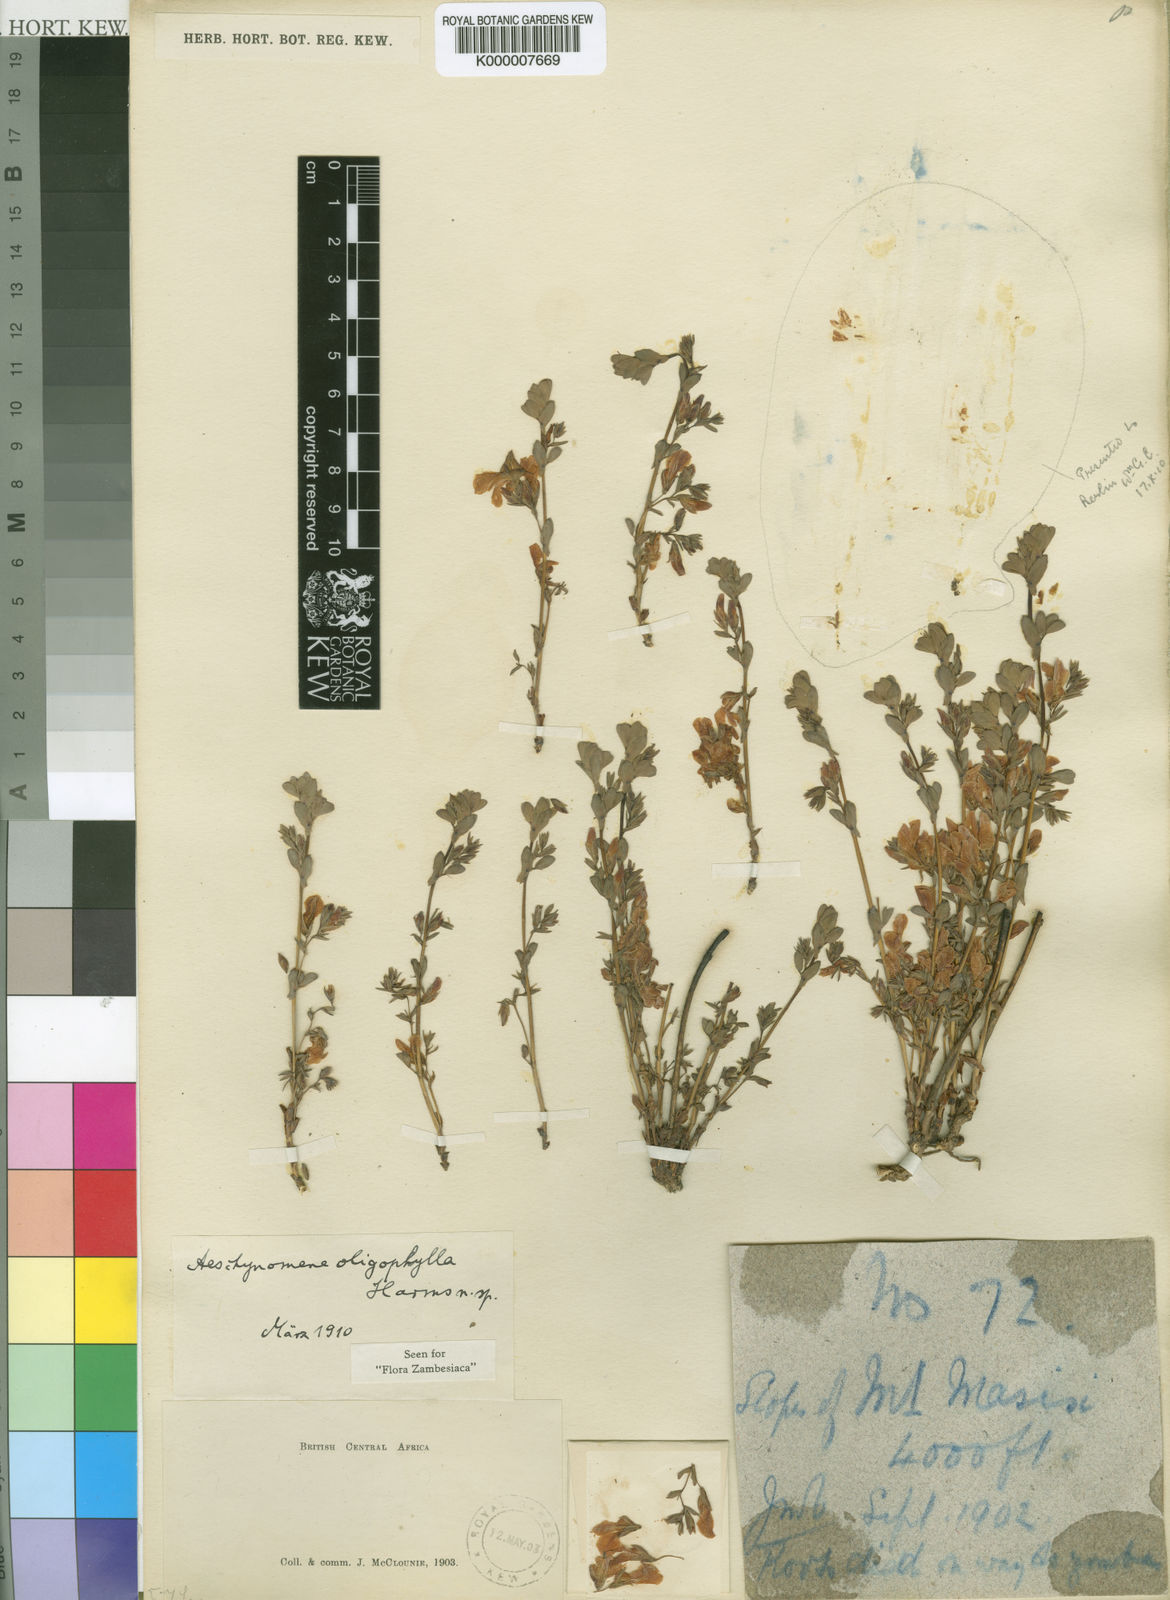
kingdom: Plantae
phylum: Tracheophyta
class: Magnoliopsida
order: Fabales
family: Fabaceae
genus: Aeschynomene
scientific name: Aeschynomene oligophylla
